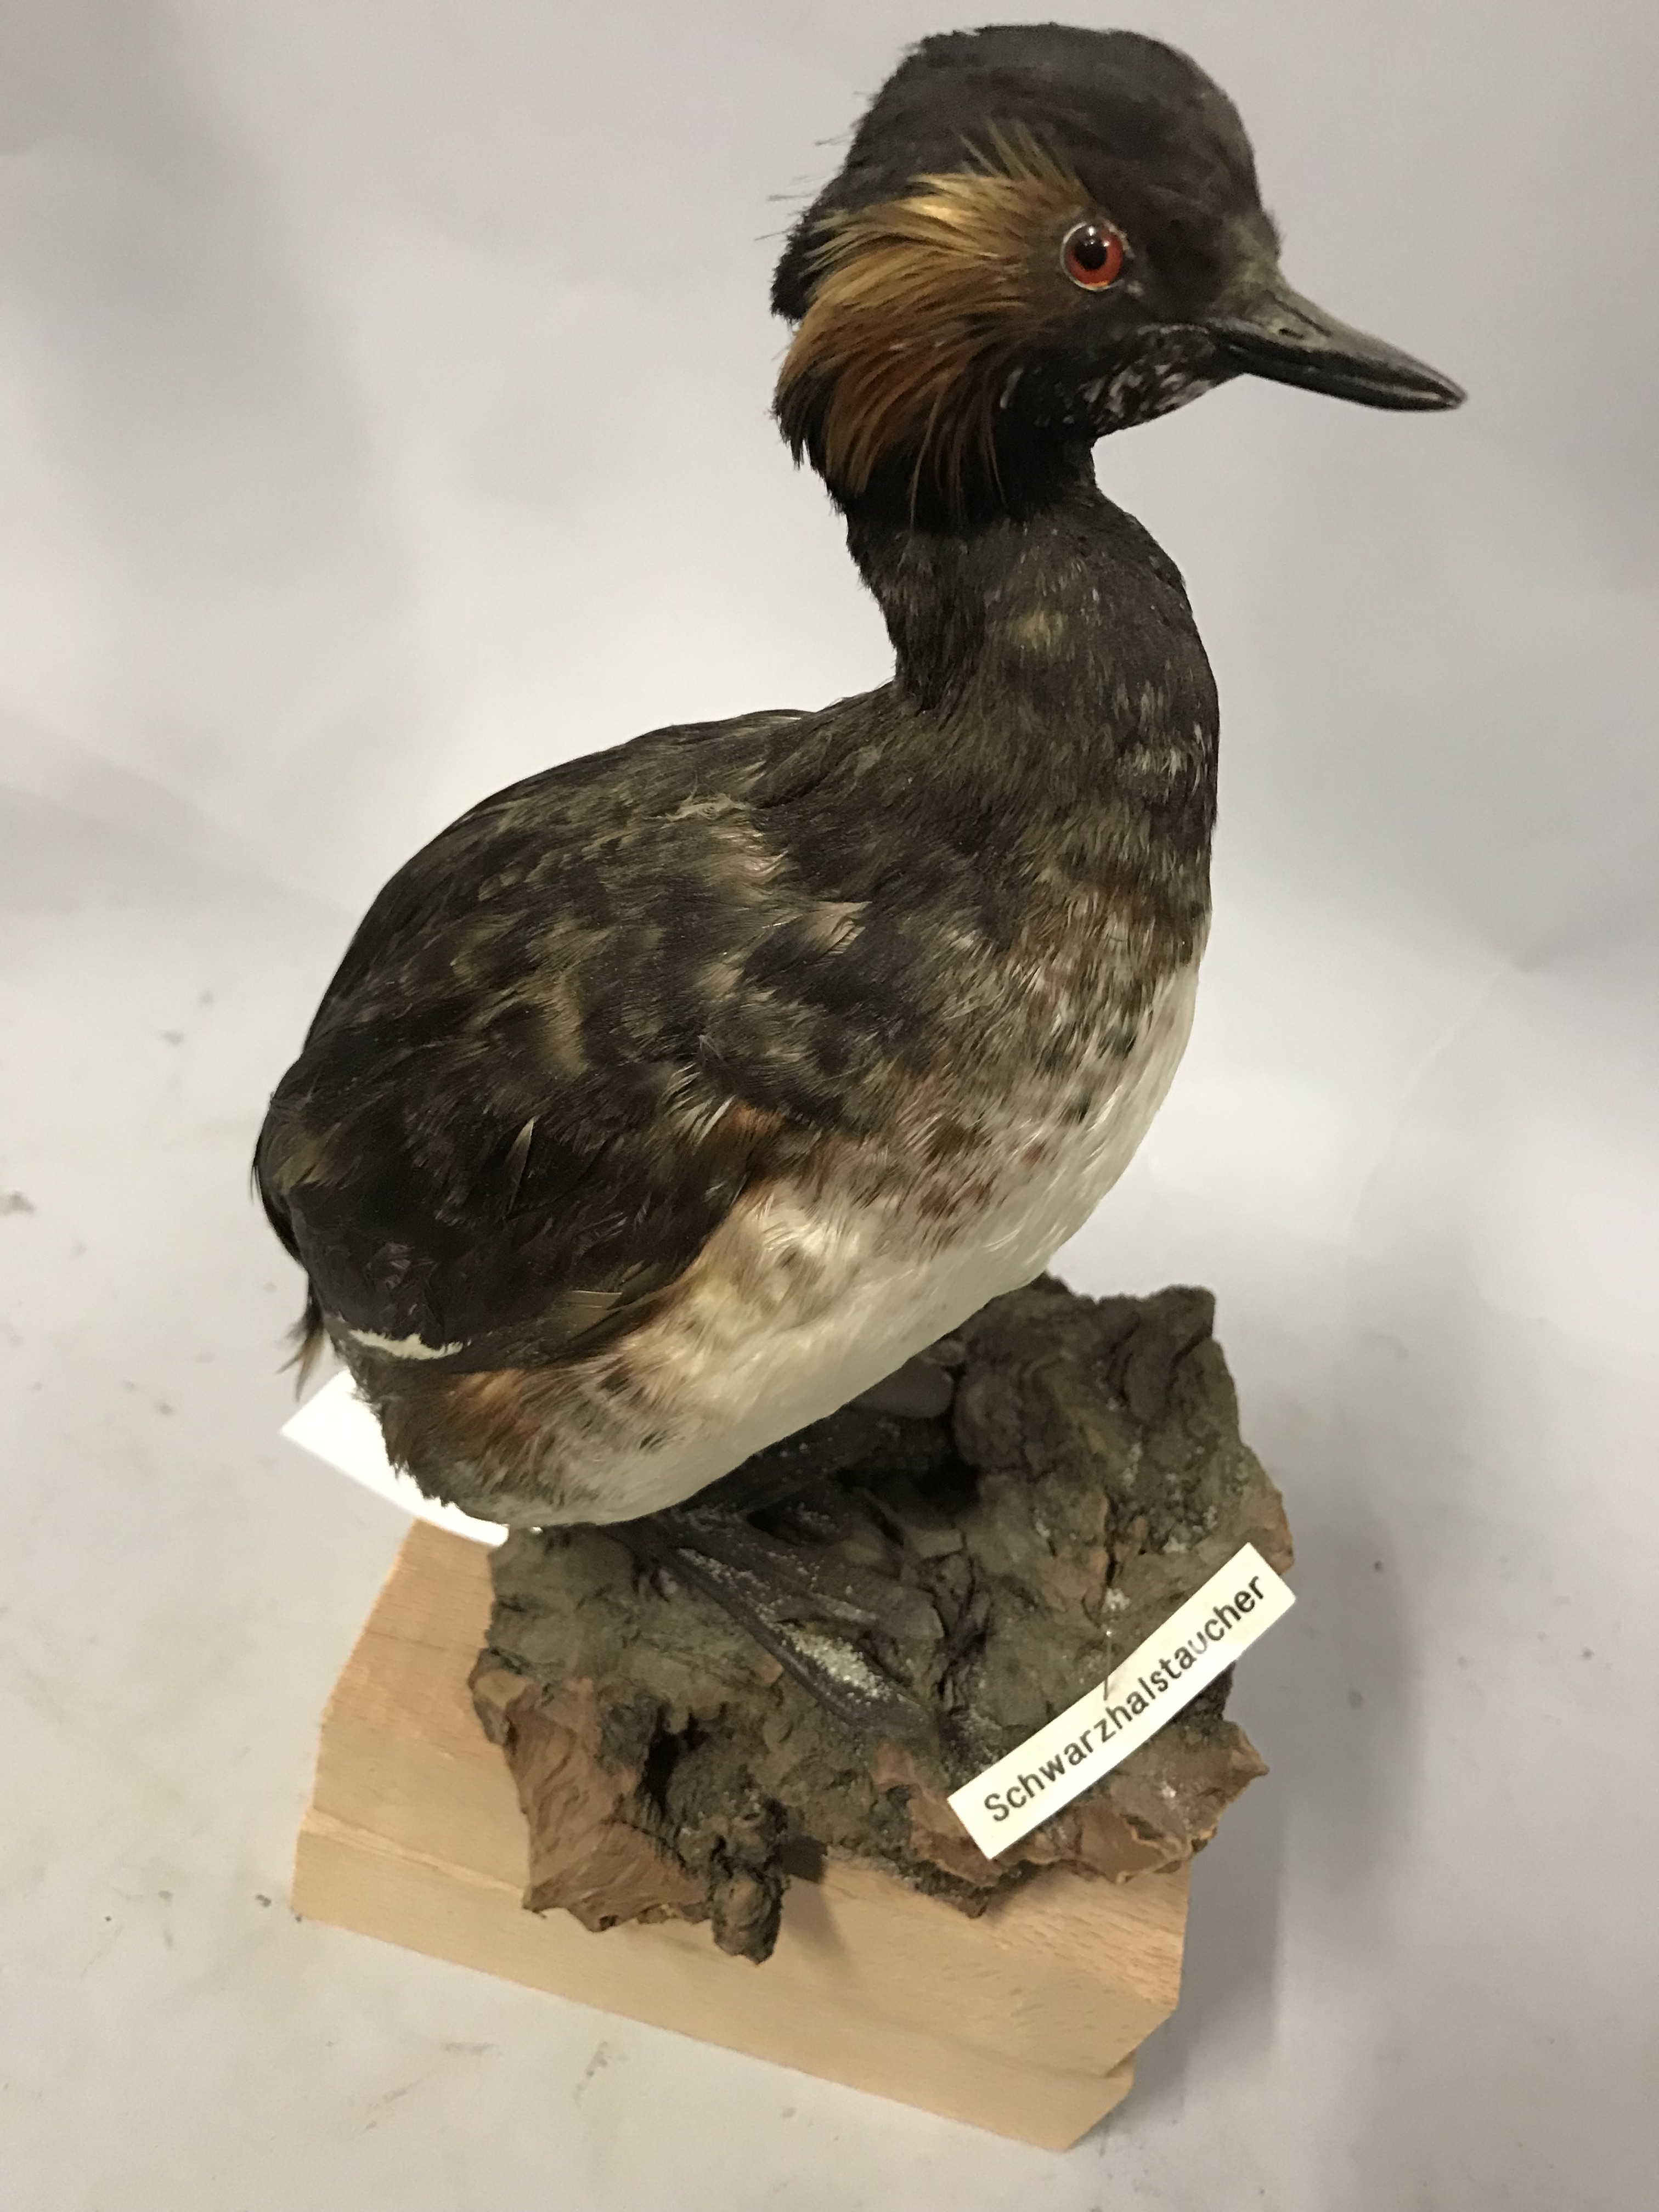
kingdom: Animalia
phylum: Chordata
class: Aves
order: Podicipediformes
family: Podicipedidae
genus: Podiceps
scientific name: Podiceps nigricollis
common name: Black-necked grebe
